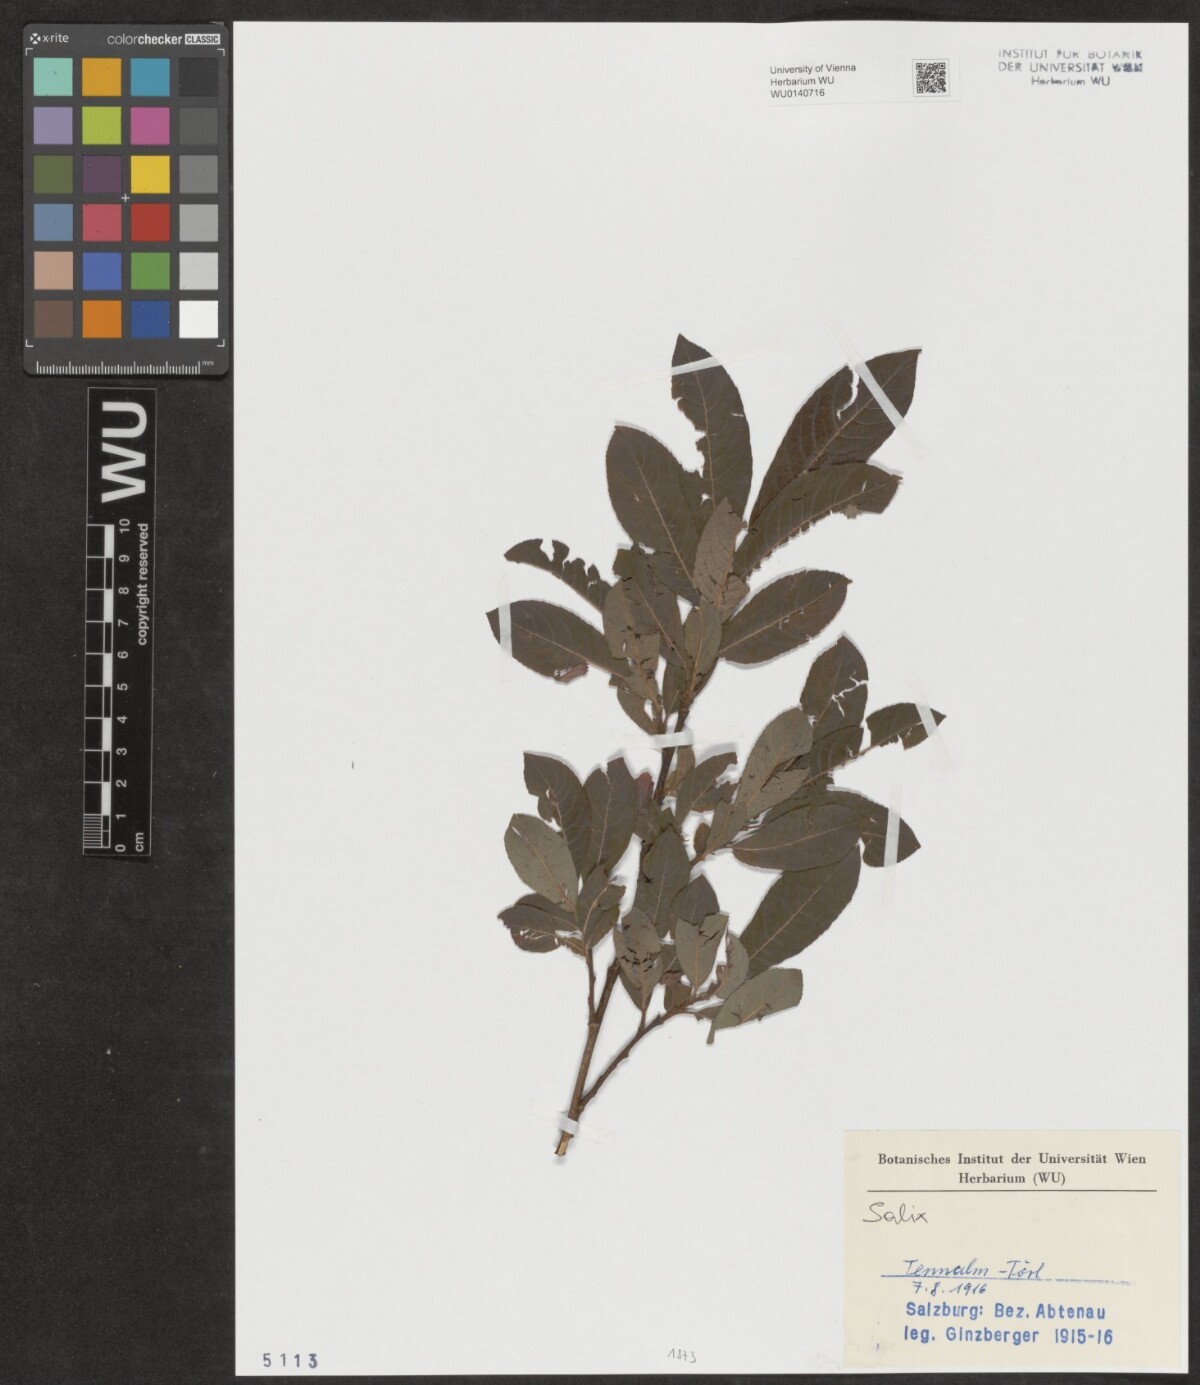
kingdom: Plantae
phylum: Tracheophyta
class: Magnoliopsida
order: Malpighiales
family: Salicaceae
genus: Salix
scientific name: Salix
